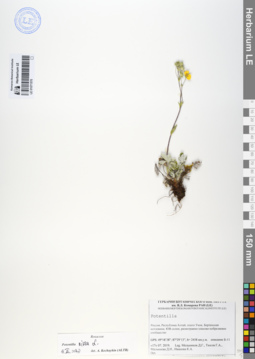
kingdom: Plantae
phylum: Tracheophyta
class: Magnoliopsida
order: Rosales
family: Rosaceae
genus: Potentilla
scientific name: Potentilla nivea
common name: Snow cinquefoil
